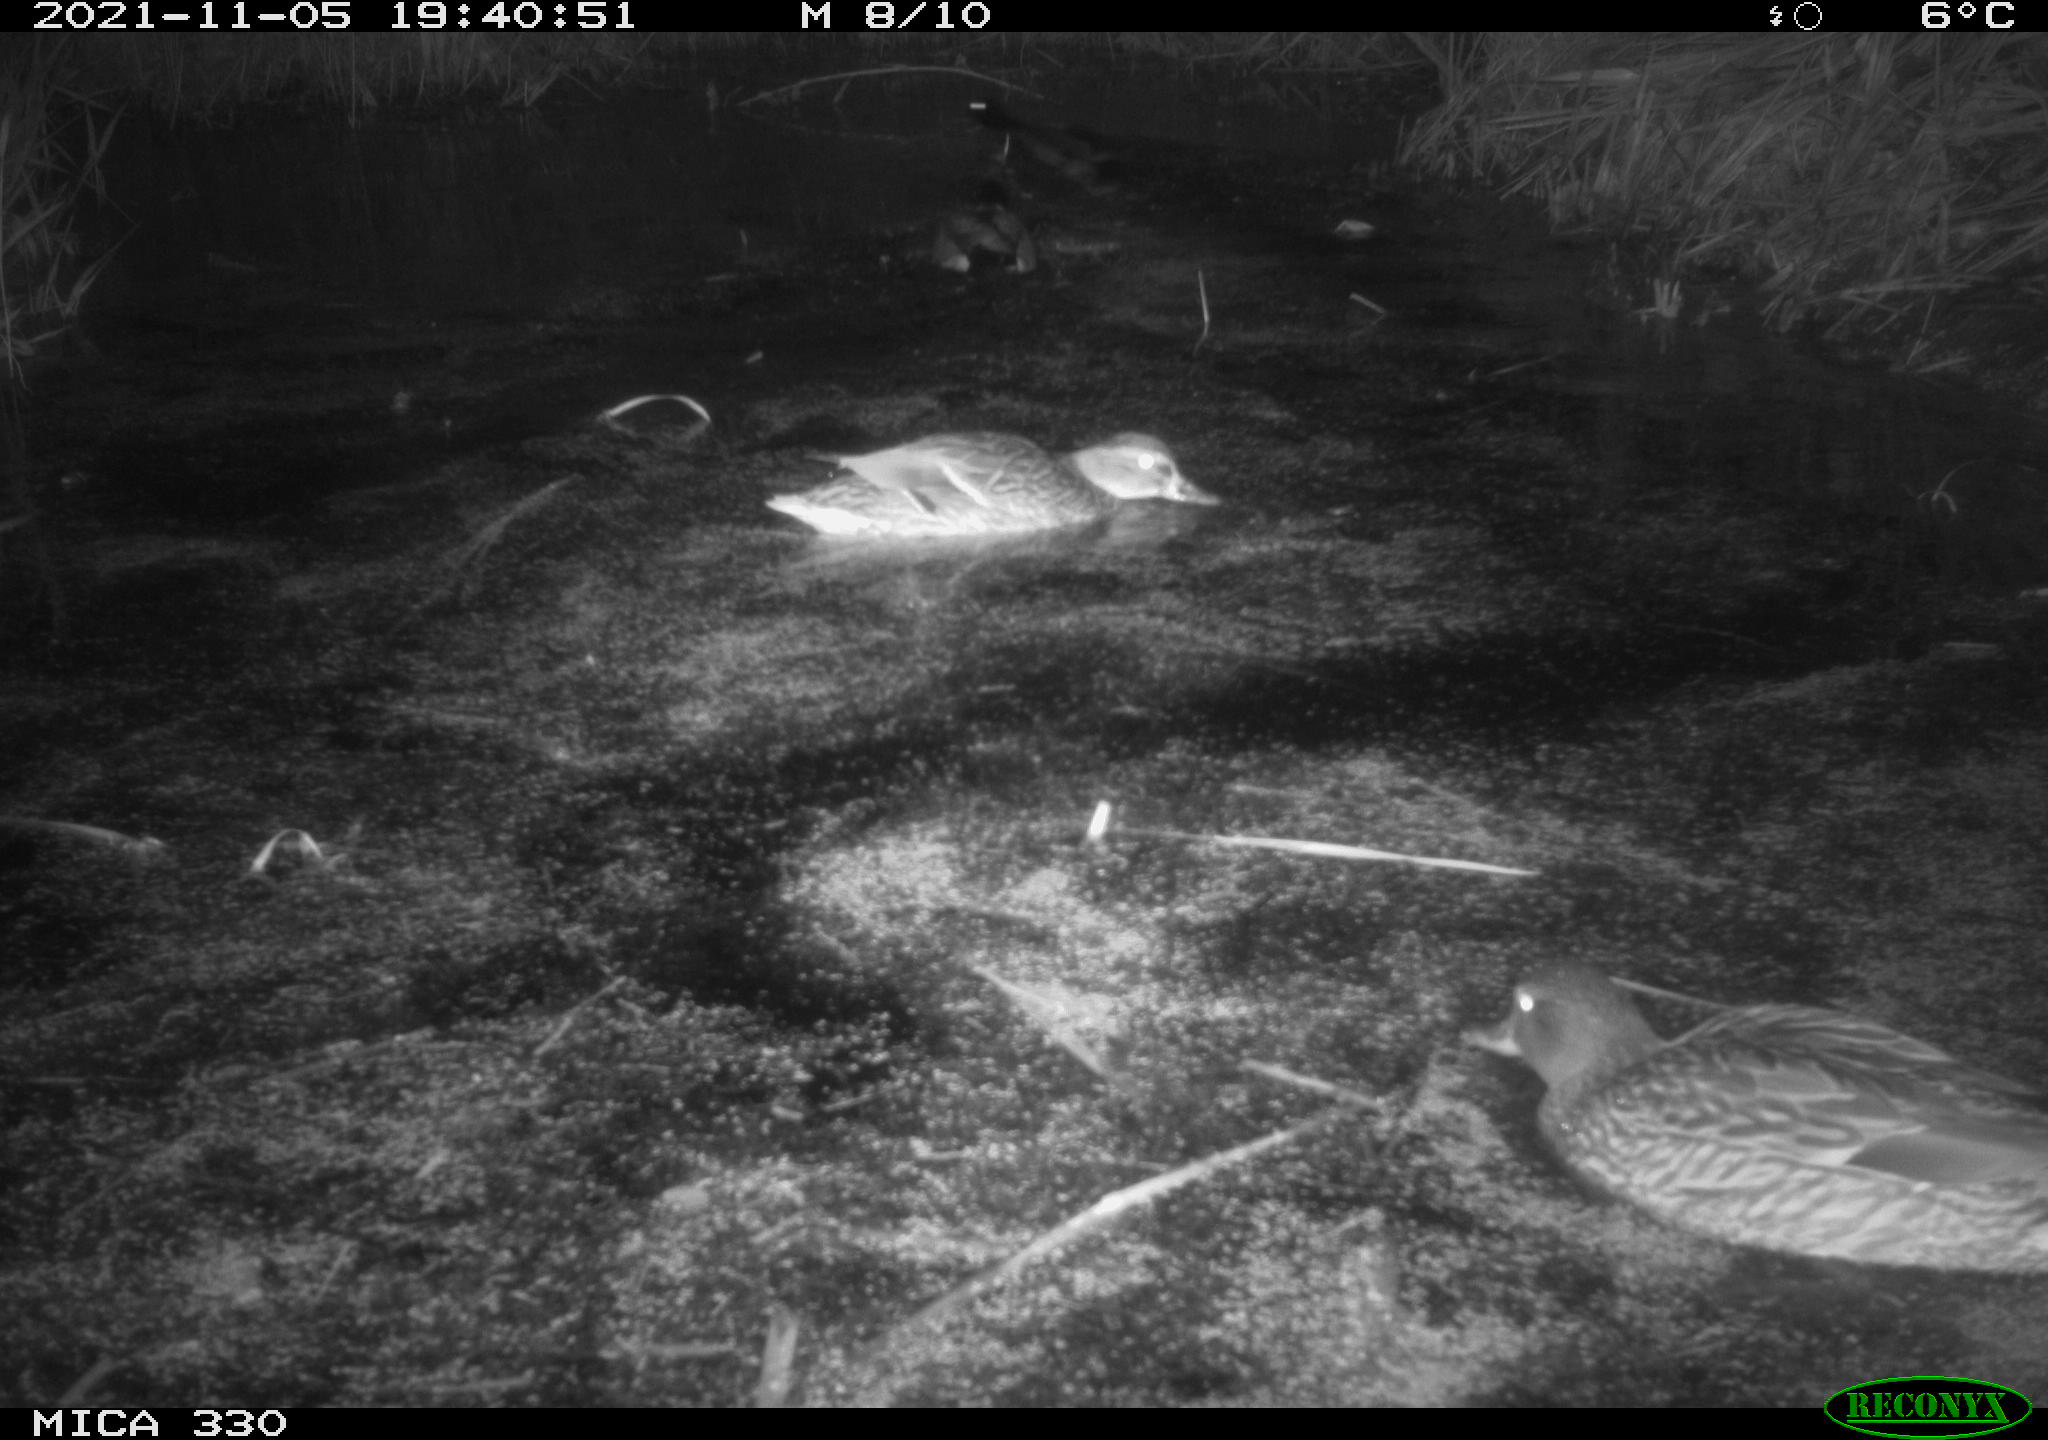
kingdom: Animalia
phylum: Chordata
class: Aves
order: Anseriformes
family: Anatidae
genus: Anas
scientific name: Anas platyrhynchos
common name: Mallard
